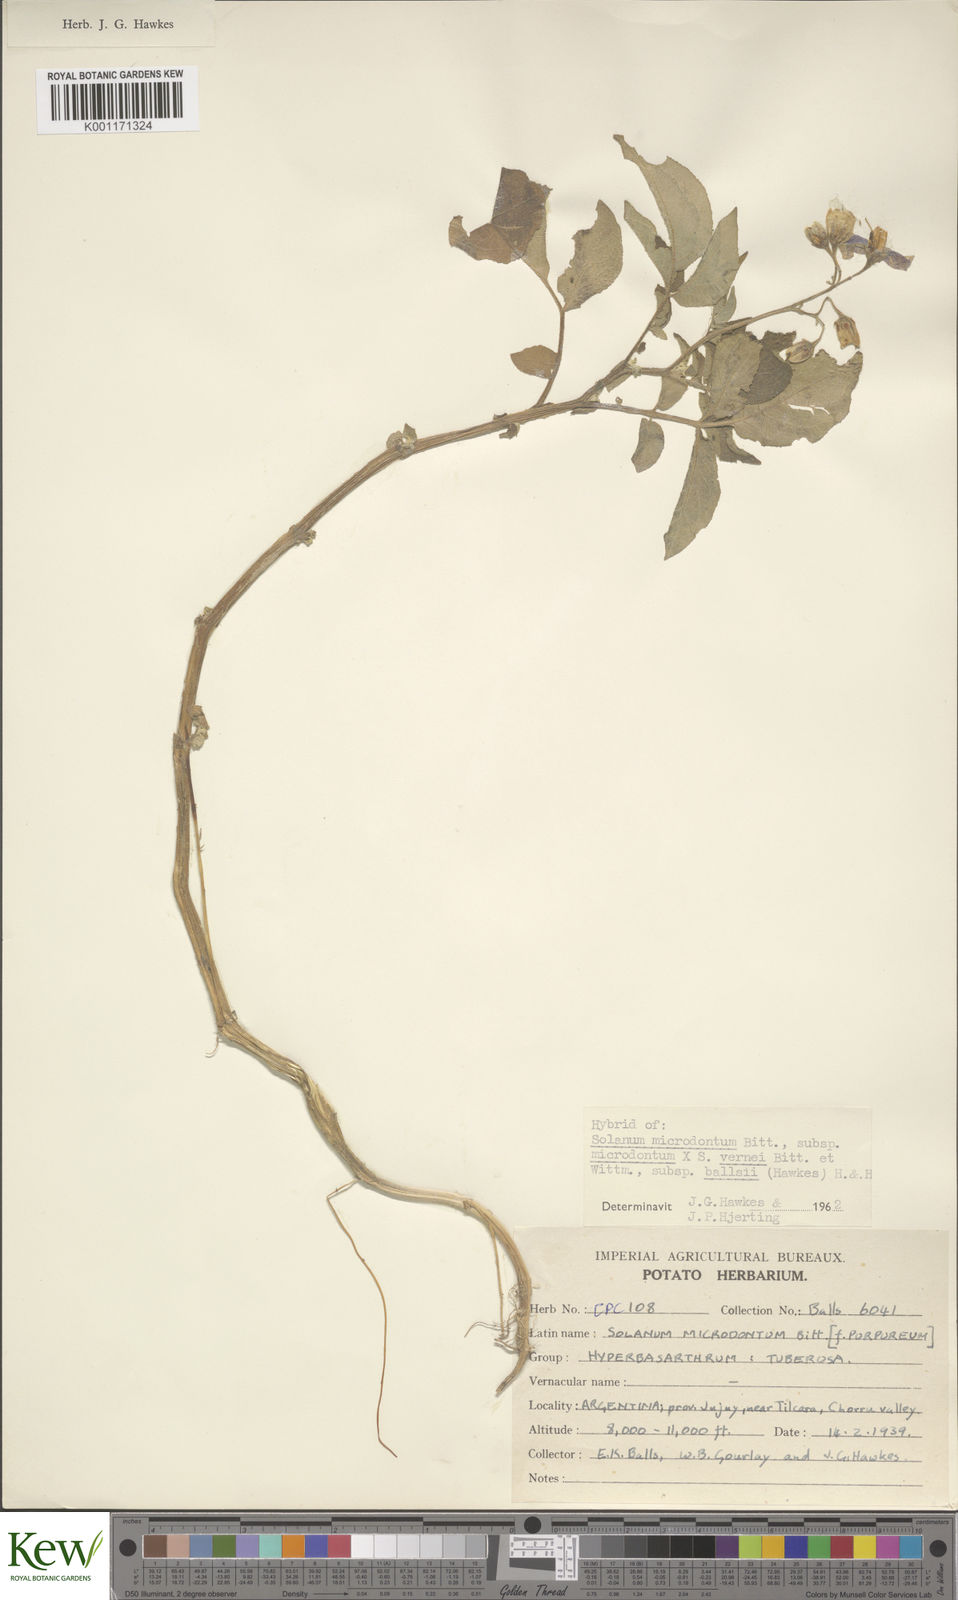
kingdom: Plantae
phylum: Tracheophyta
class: Magnoliopsida
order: Solanales
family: Solanaceae
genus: Solanum
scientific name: Solanum microdontum
